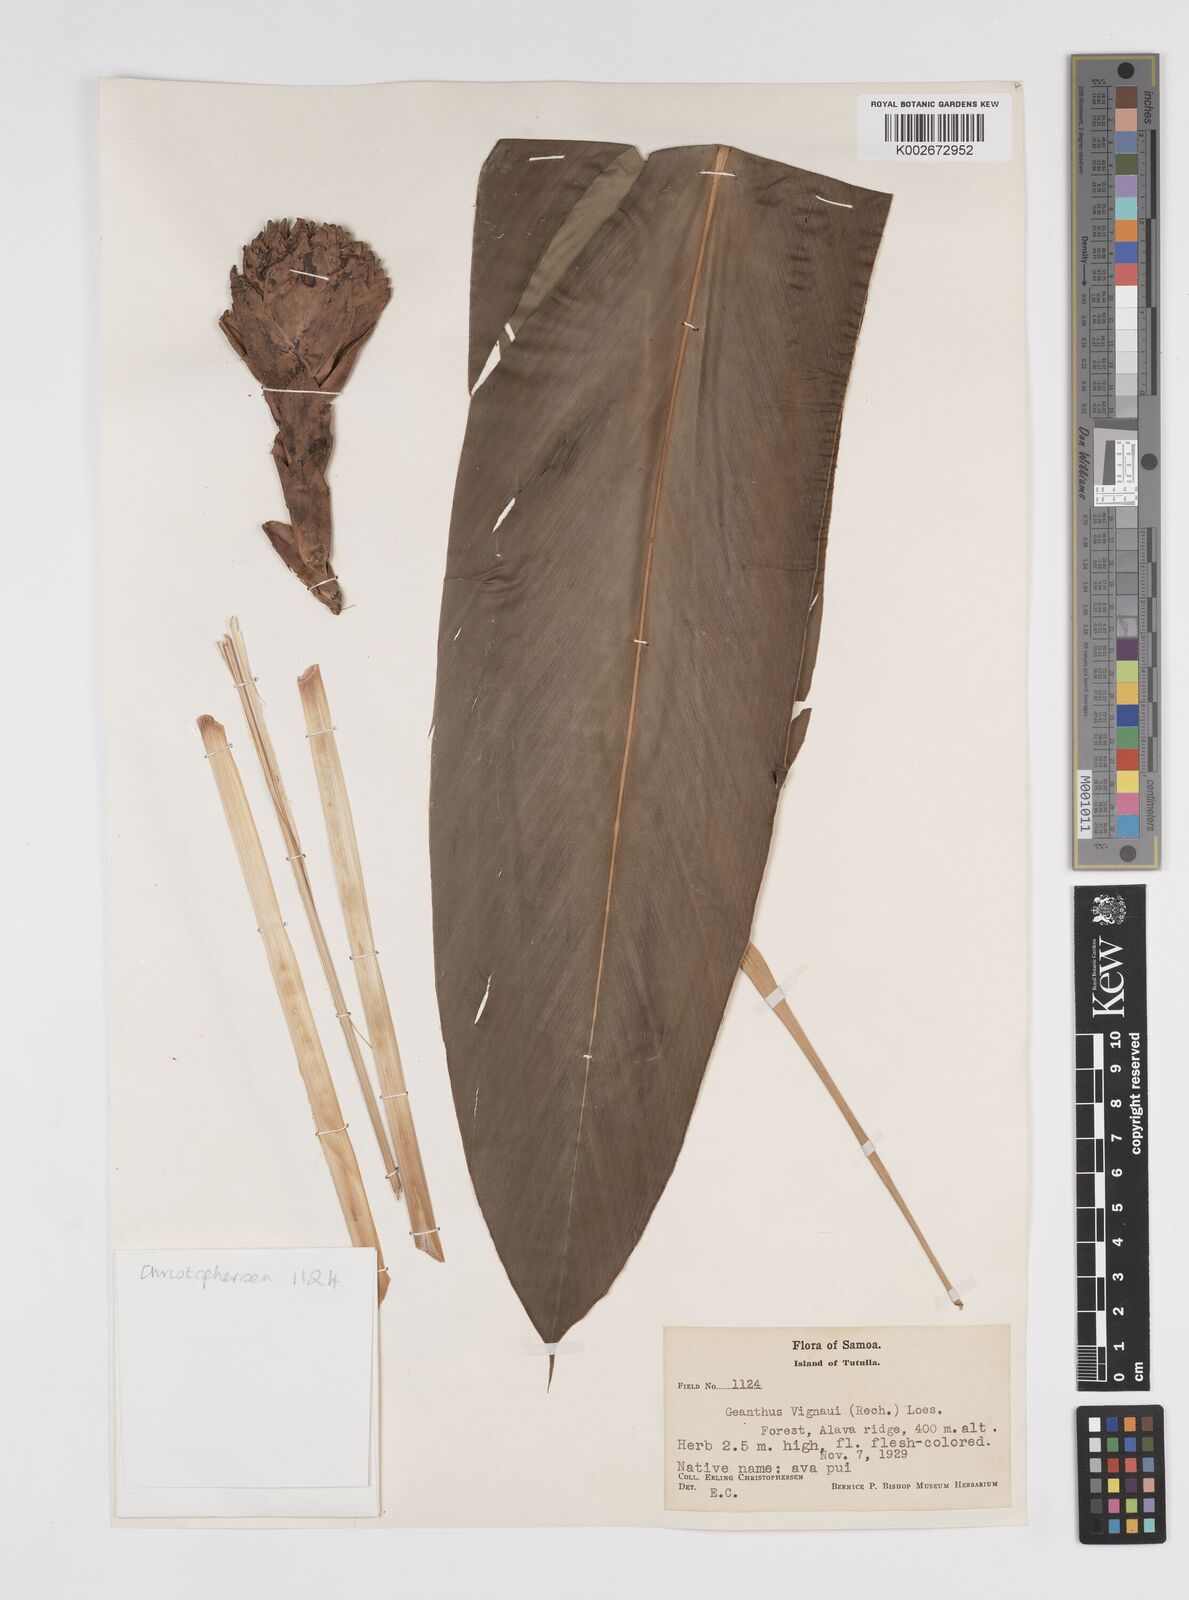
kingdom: Plantae
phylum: Tracheophyta
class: Liliopsida
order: Zingiberales
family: Zingiberaceae
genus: Etlingera
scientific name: Etlingera cevuga
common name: Waxflower
